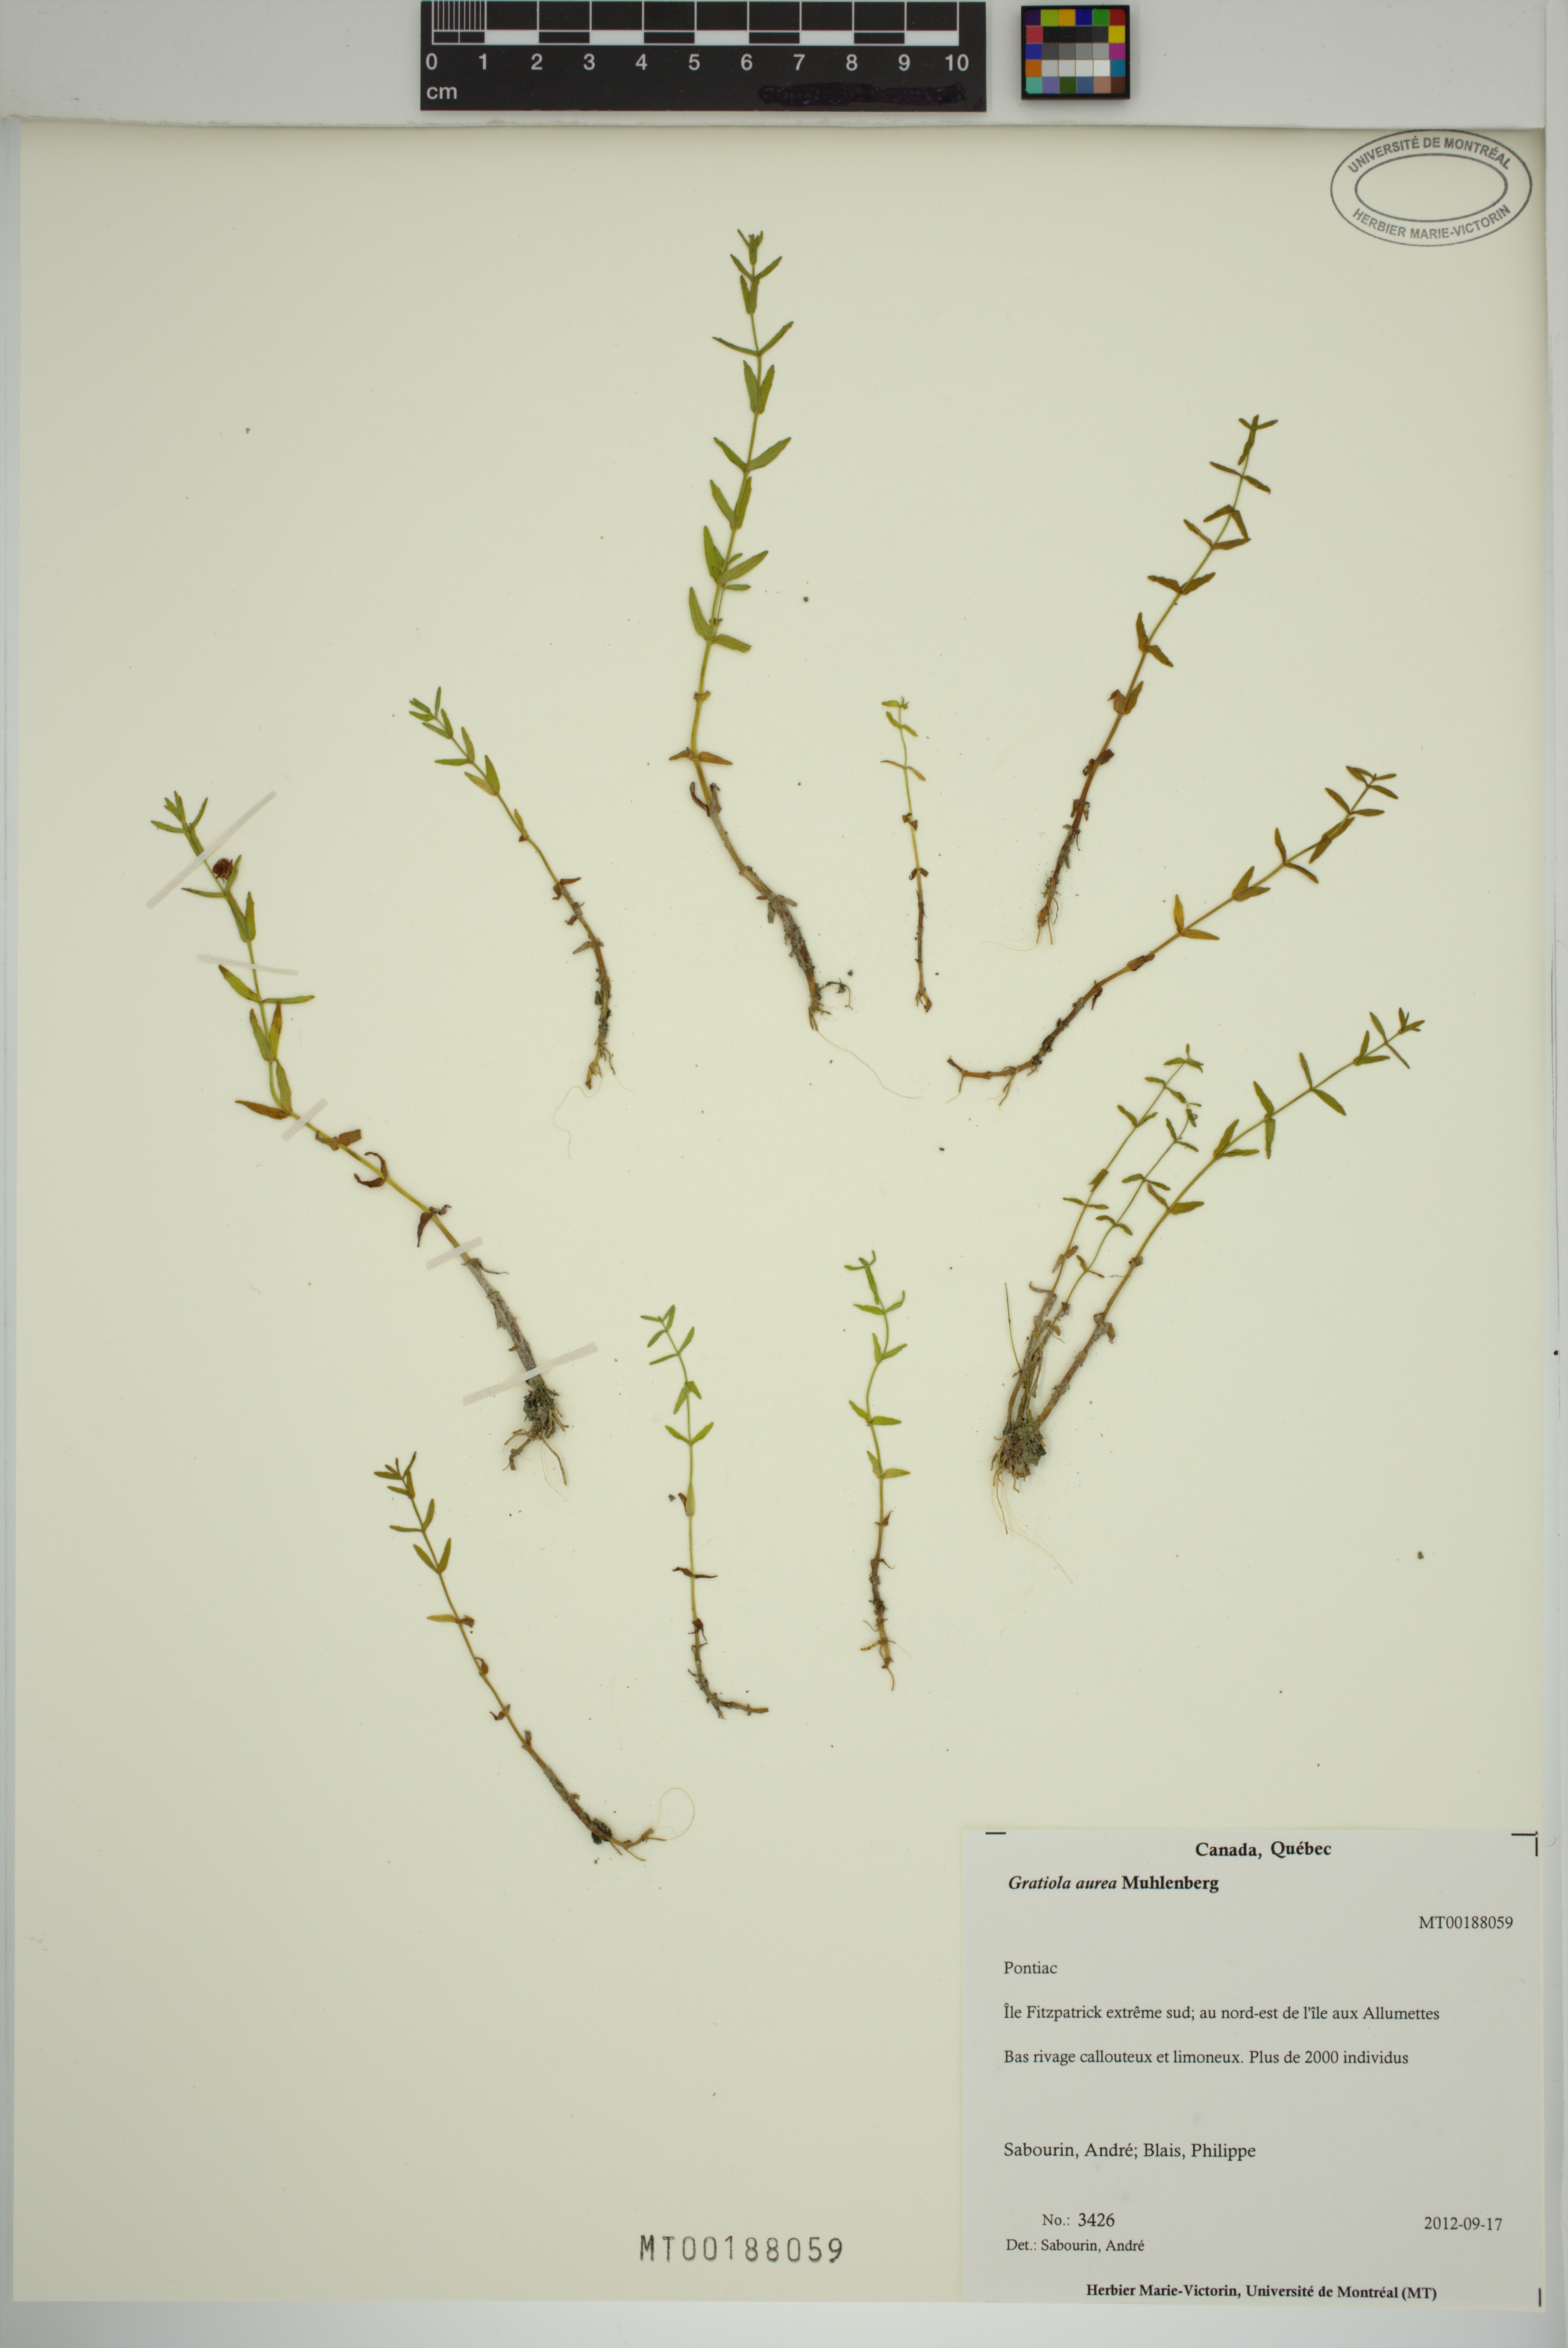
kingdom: Plantae
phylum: Tracheophyta
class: Magnoliopsida
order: Lamiales
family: Plantaginaceae
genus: Gratiola
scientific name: Gratiola lutea
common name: Golden hedge-hyssop
